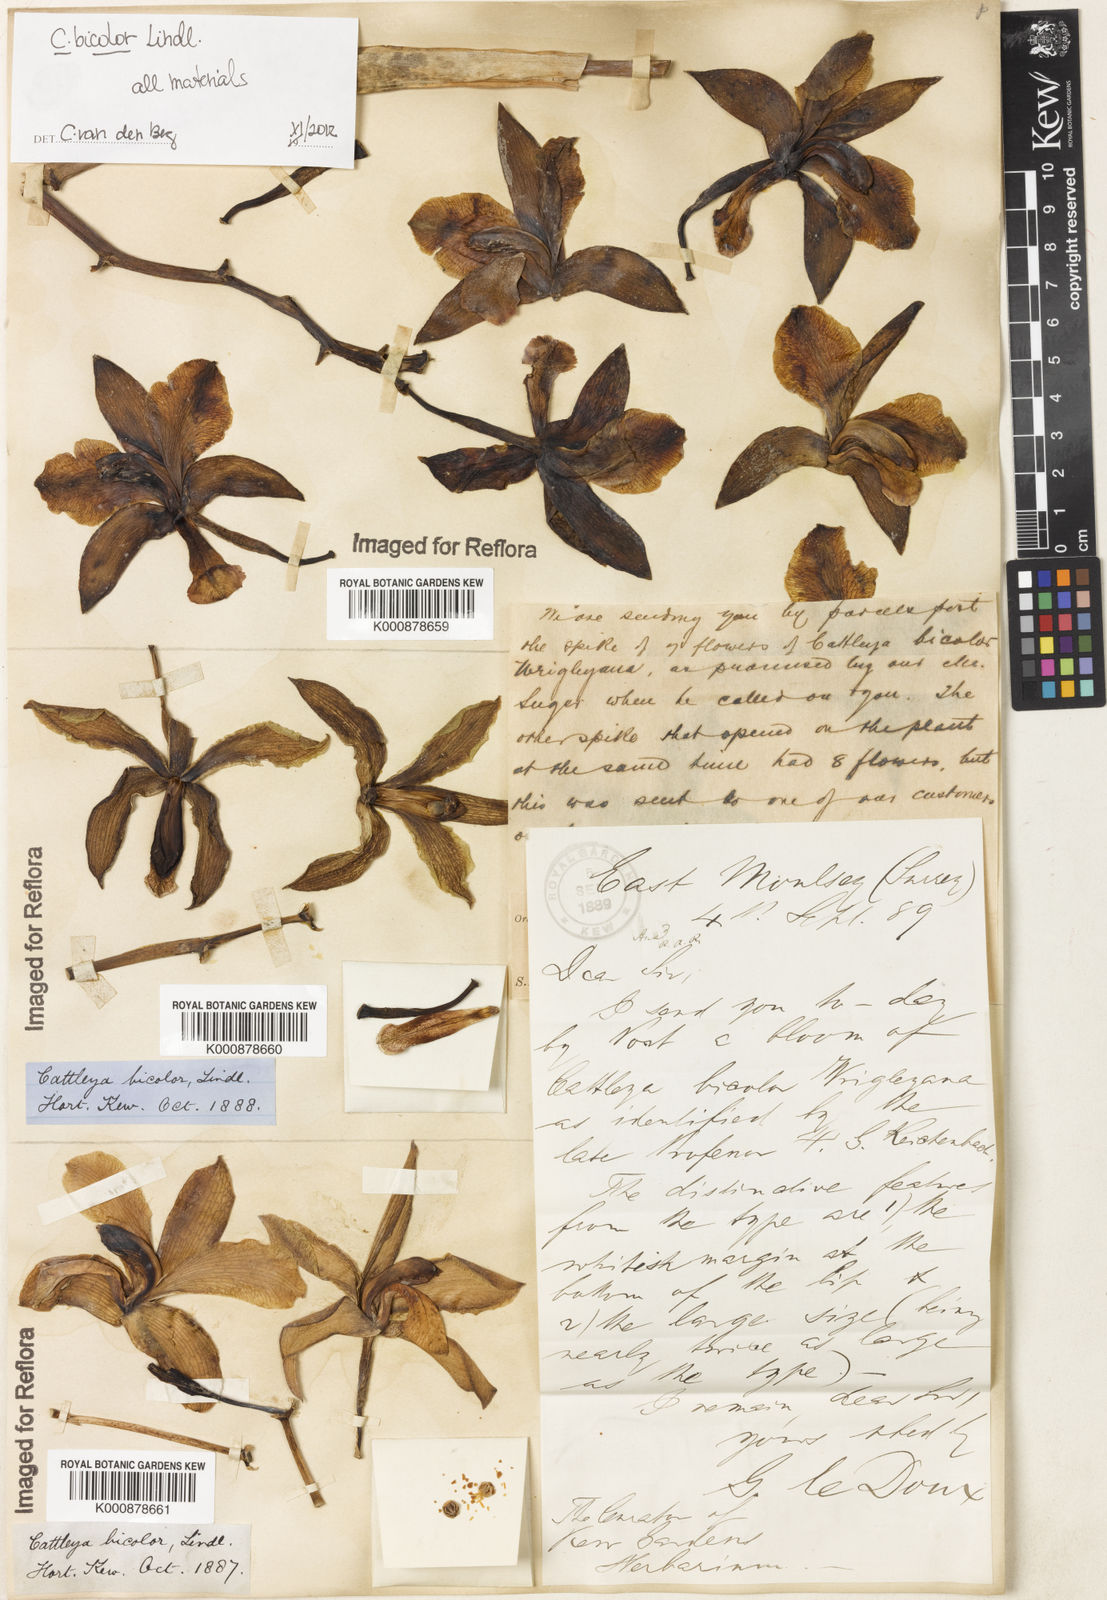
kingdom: Plantae
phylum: Tracheophyta
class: Liliopsida
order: Asparagales
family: Orchidaceae
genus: Cattleya
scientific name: Cattleya bicolor
